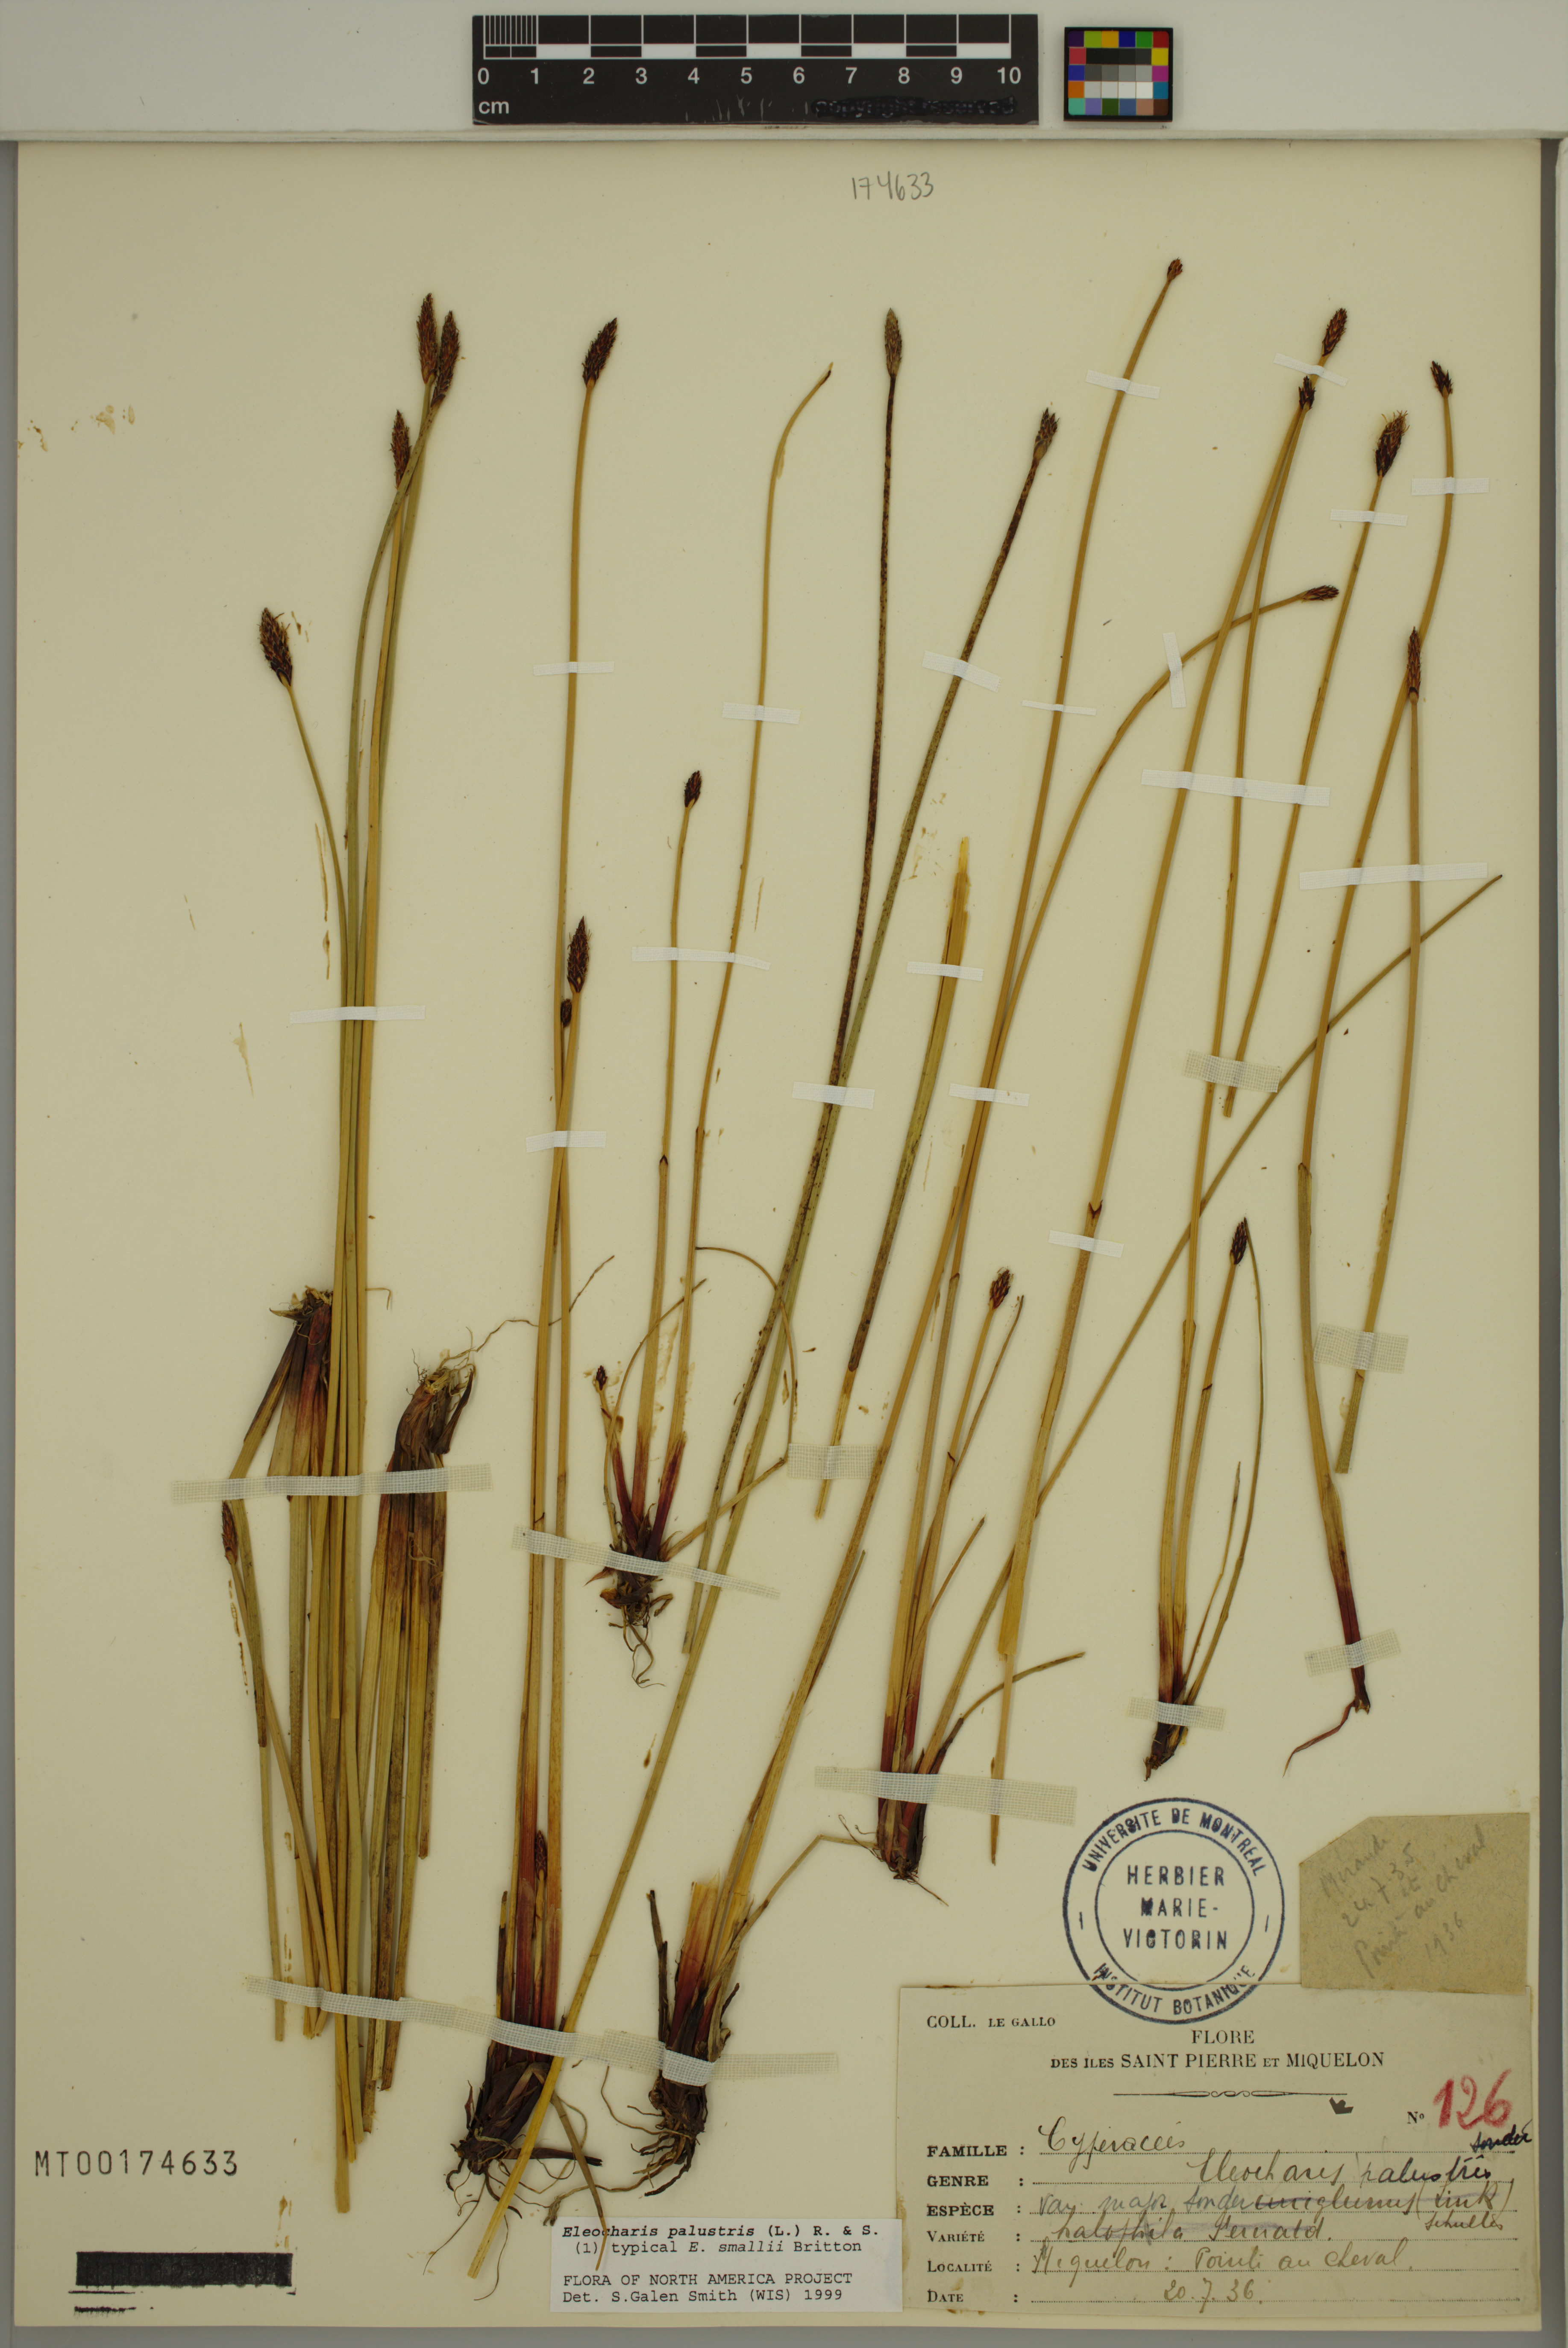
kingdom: Plantae
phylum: Tracheophyta
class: Liliopsida
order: Poales
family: Cyperaceae
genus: Eleocharis
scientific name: Eleocharis palustris
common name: Common spike-rush
